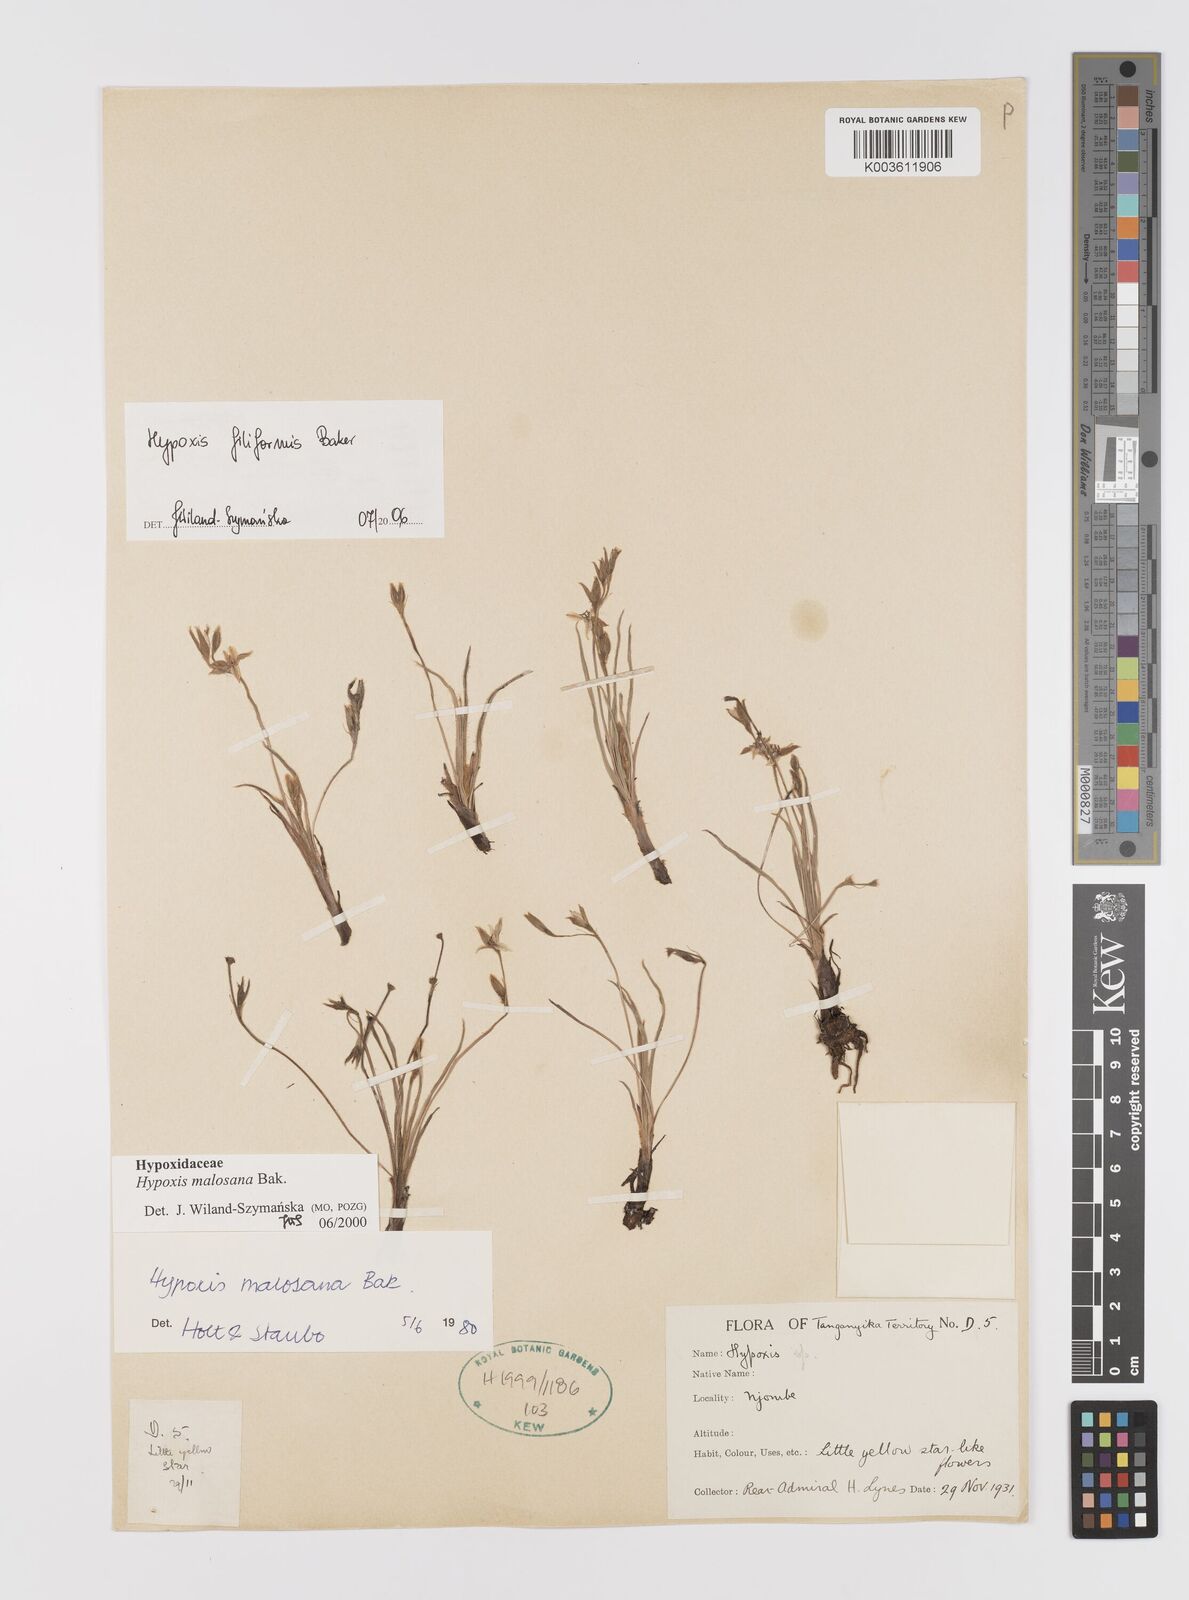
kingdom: Plantae
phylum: Tracheophyta
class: Liliopsida
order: Asparagales
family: Hypoxidaceae
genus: Hypoxis
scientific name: Hypoxis filiformis
